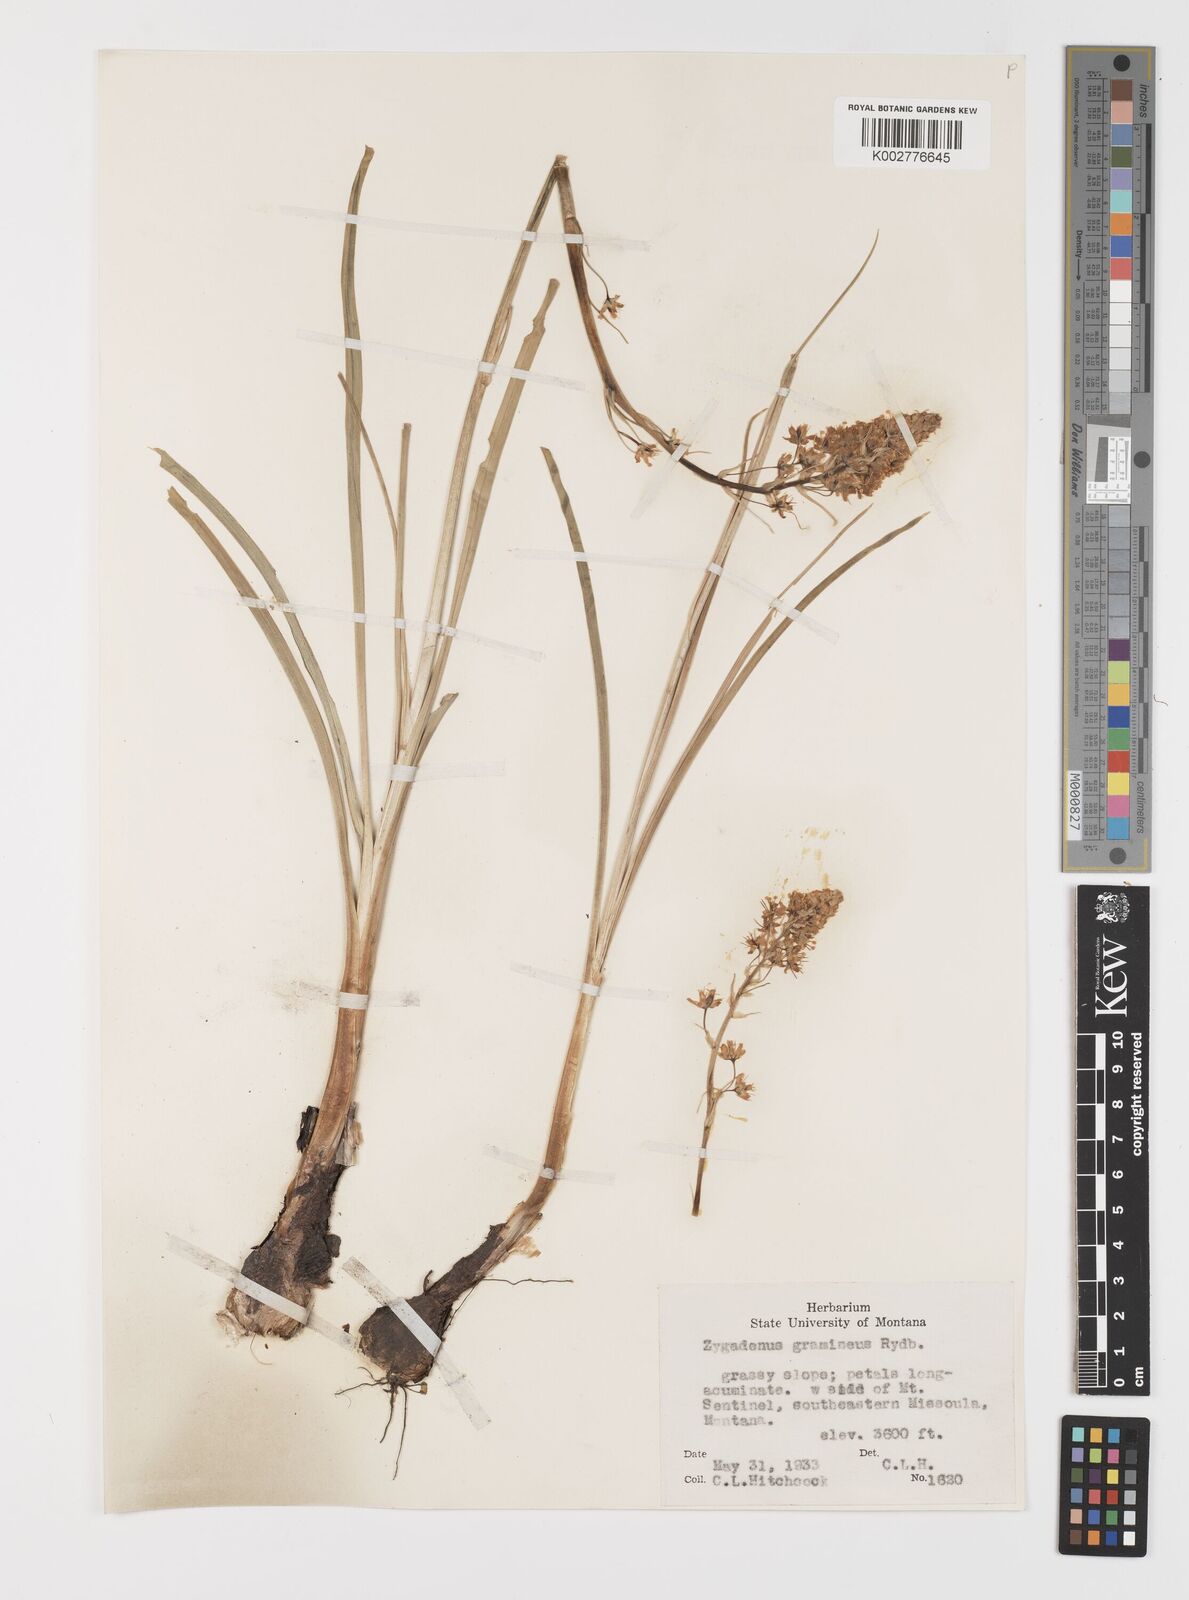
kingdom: Plantae
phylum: Tracheophyta
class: Liliopsida
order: Liliales
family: Melanthiaceae
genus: Toxicoscordion
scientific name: Toxicoscordion venenosum
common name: Meadow death camas
